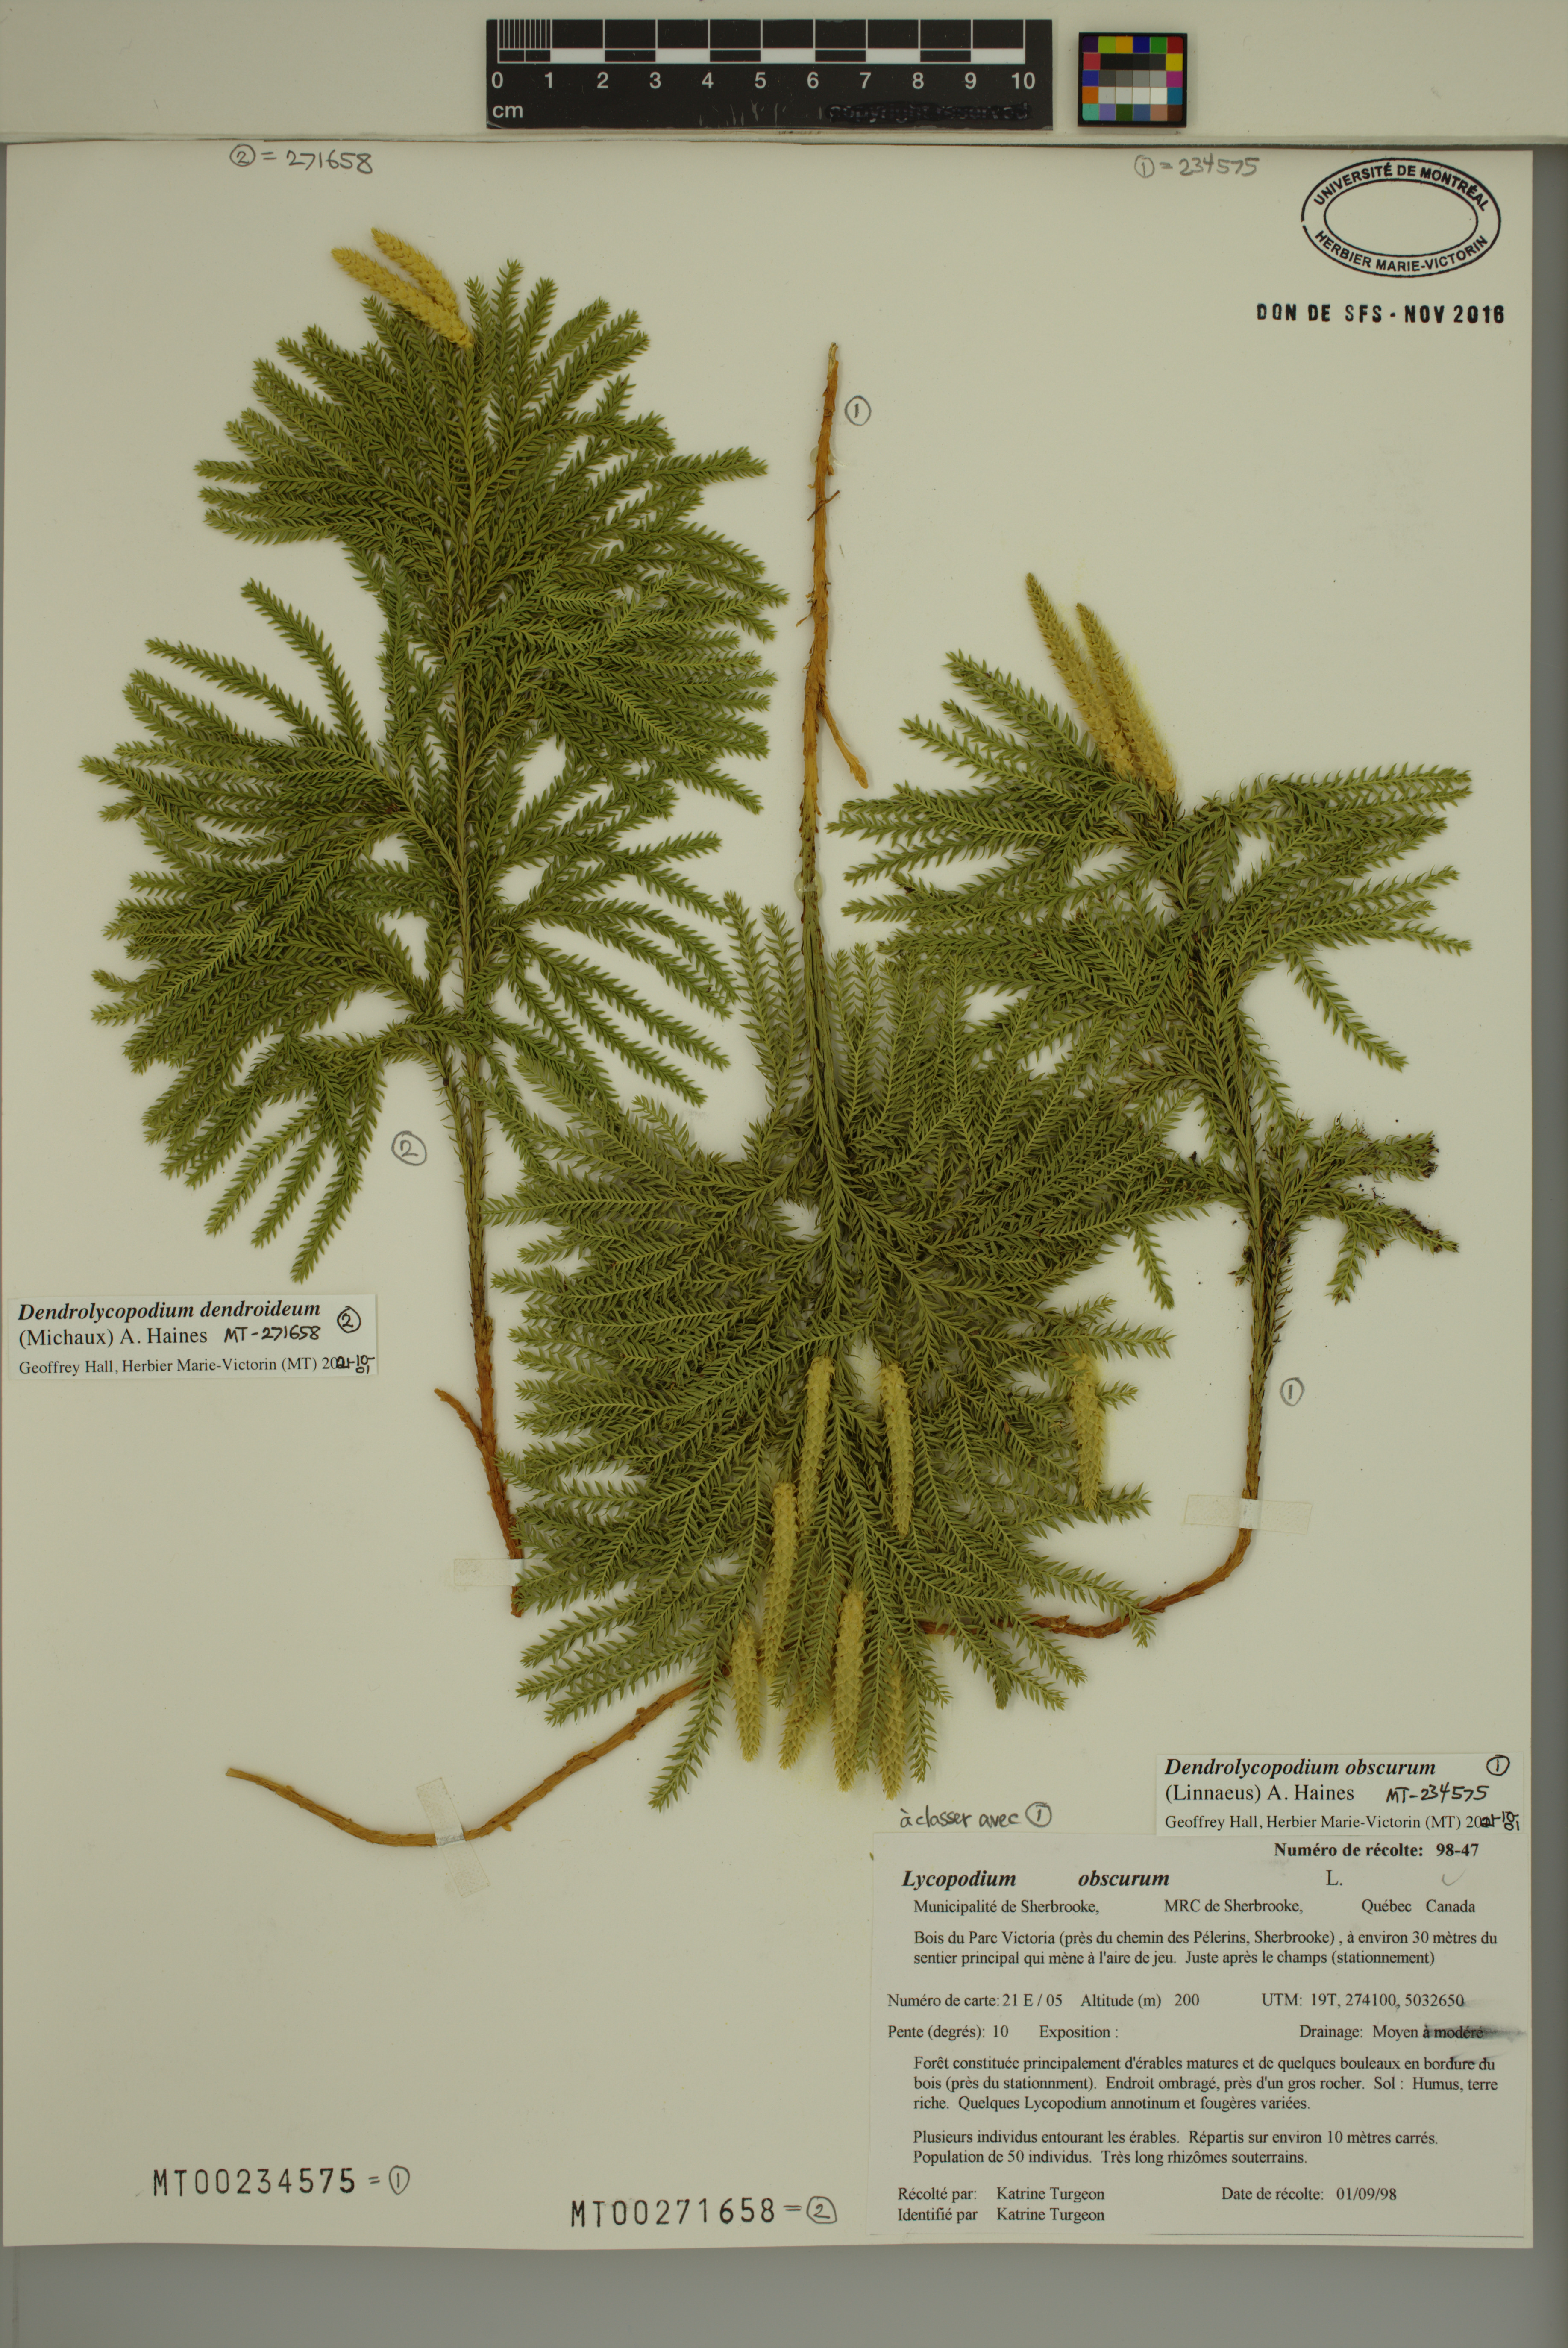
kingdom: Plantae
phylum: Tracheophyta
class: Lycopodiopsida
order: Lycopodiales
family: Lycopodiaceae
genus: Dendrolycopodium
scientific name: Dendrolycopodium obscurum
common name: Common ground-pine
